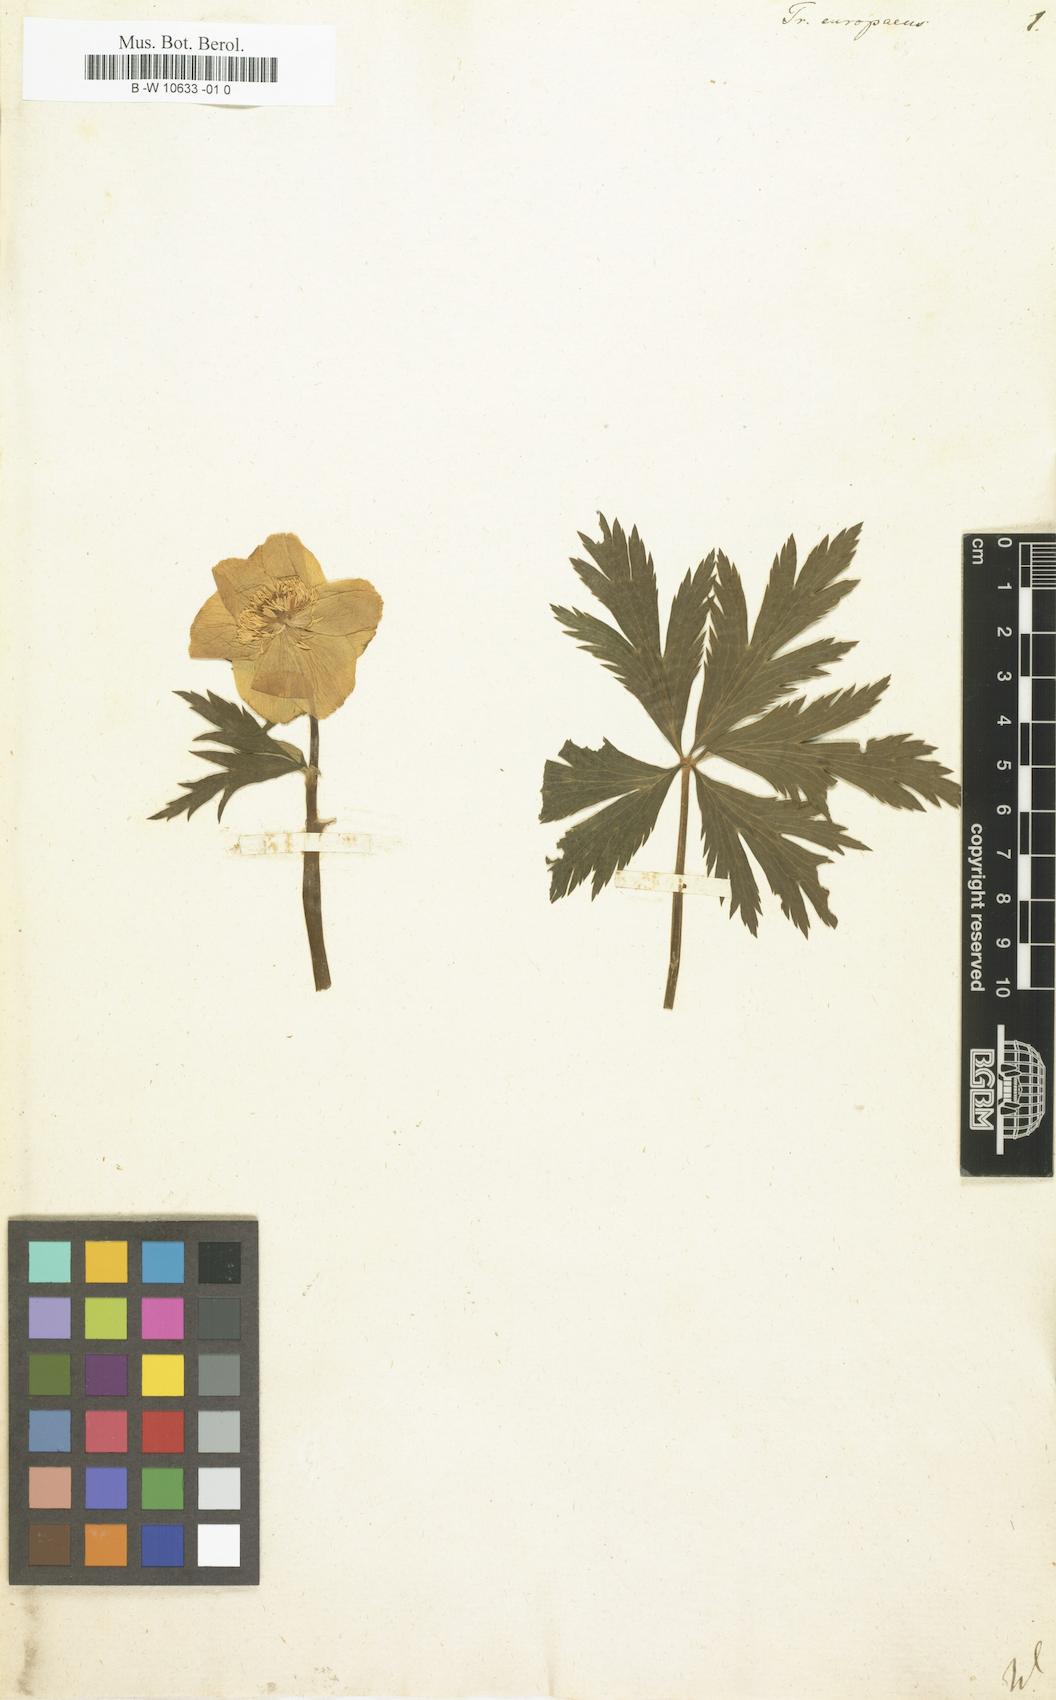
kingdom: Plantae
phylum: Tracheophyta
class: Magnoliopsida
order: Ranunculales
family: Ranunculaceae
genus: Trollius
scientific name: Trollius europaeus
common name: European globeflower
